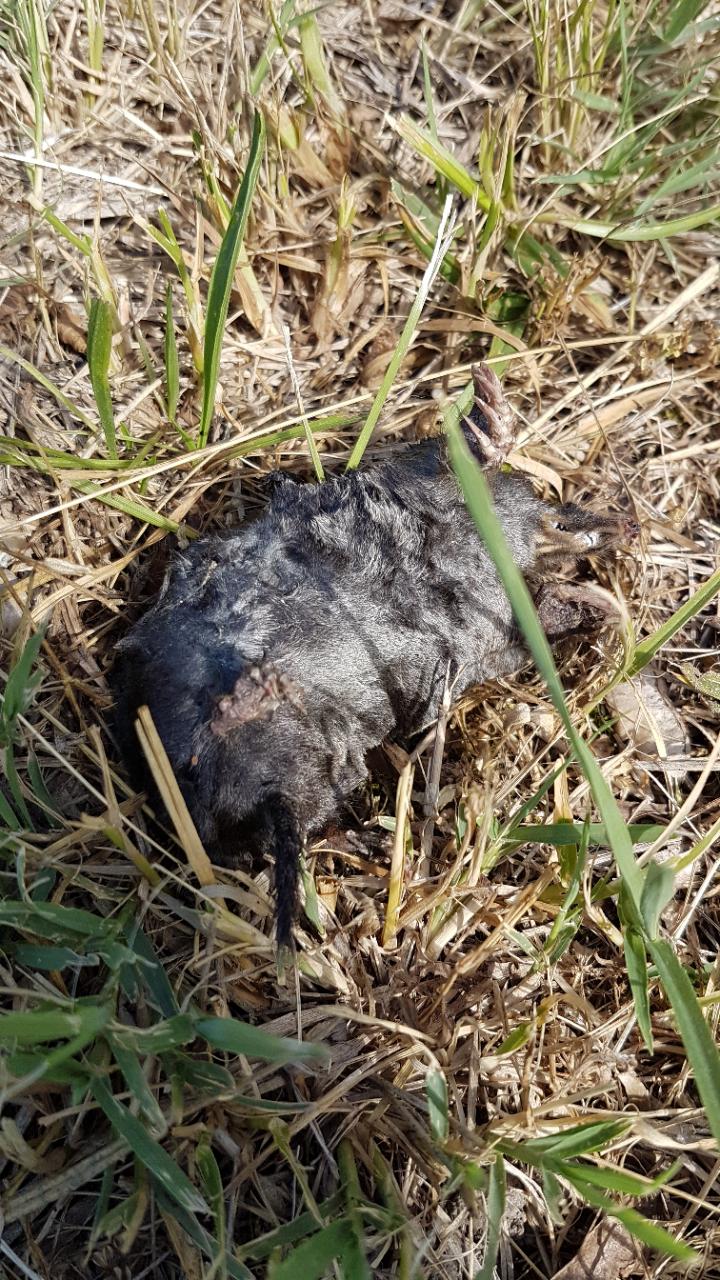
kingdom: Animalia
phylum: Chordata
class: Mammalia
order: Soricomorpha
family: Talpidae
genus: Talpa
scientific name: Talpa europaea
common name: European mole
